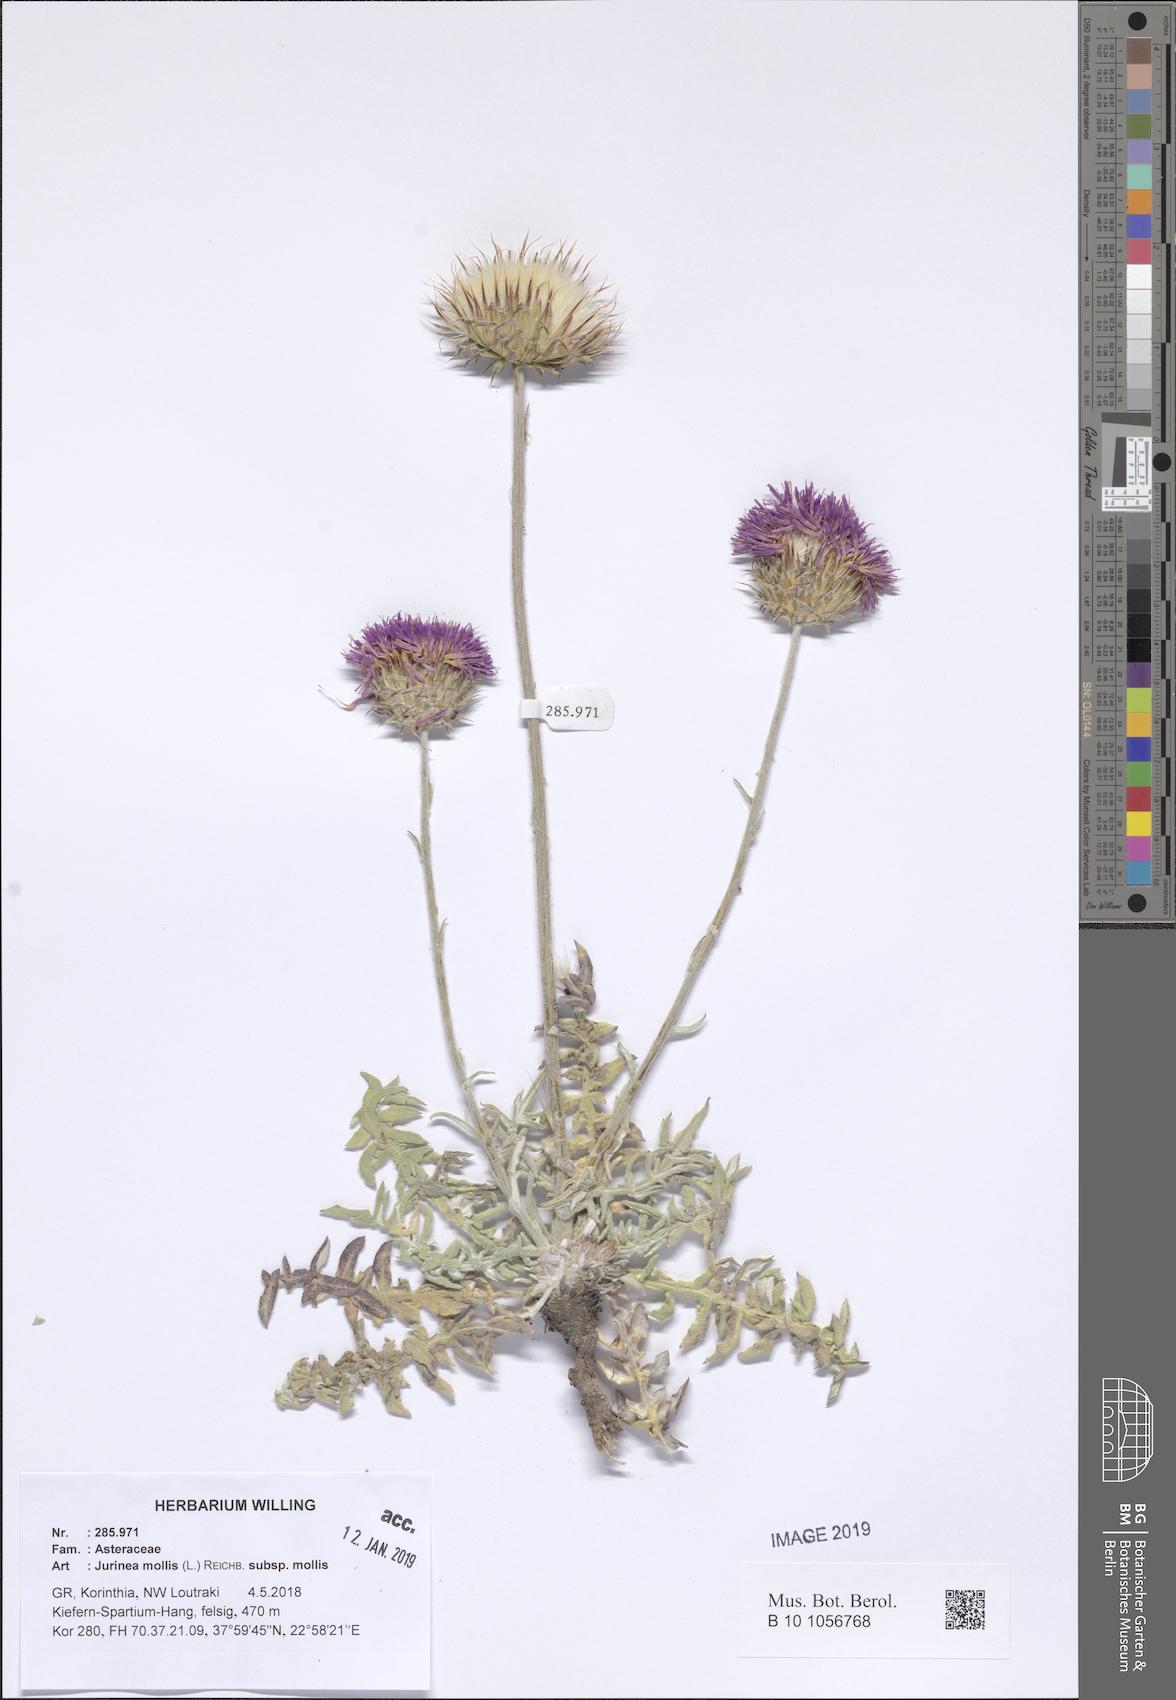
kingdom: Plantae
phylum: Tracheophyta
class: Magnoliopsida
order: Asterales
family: Asteraceae
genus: Jurinea
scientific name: Jurinea glycacantha
